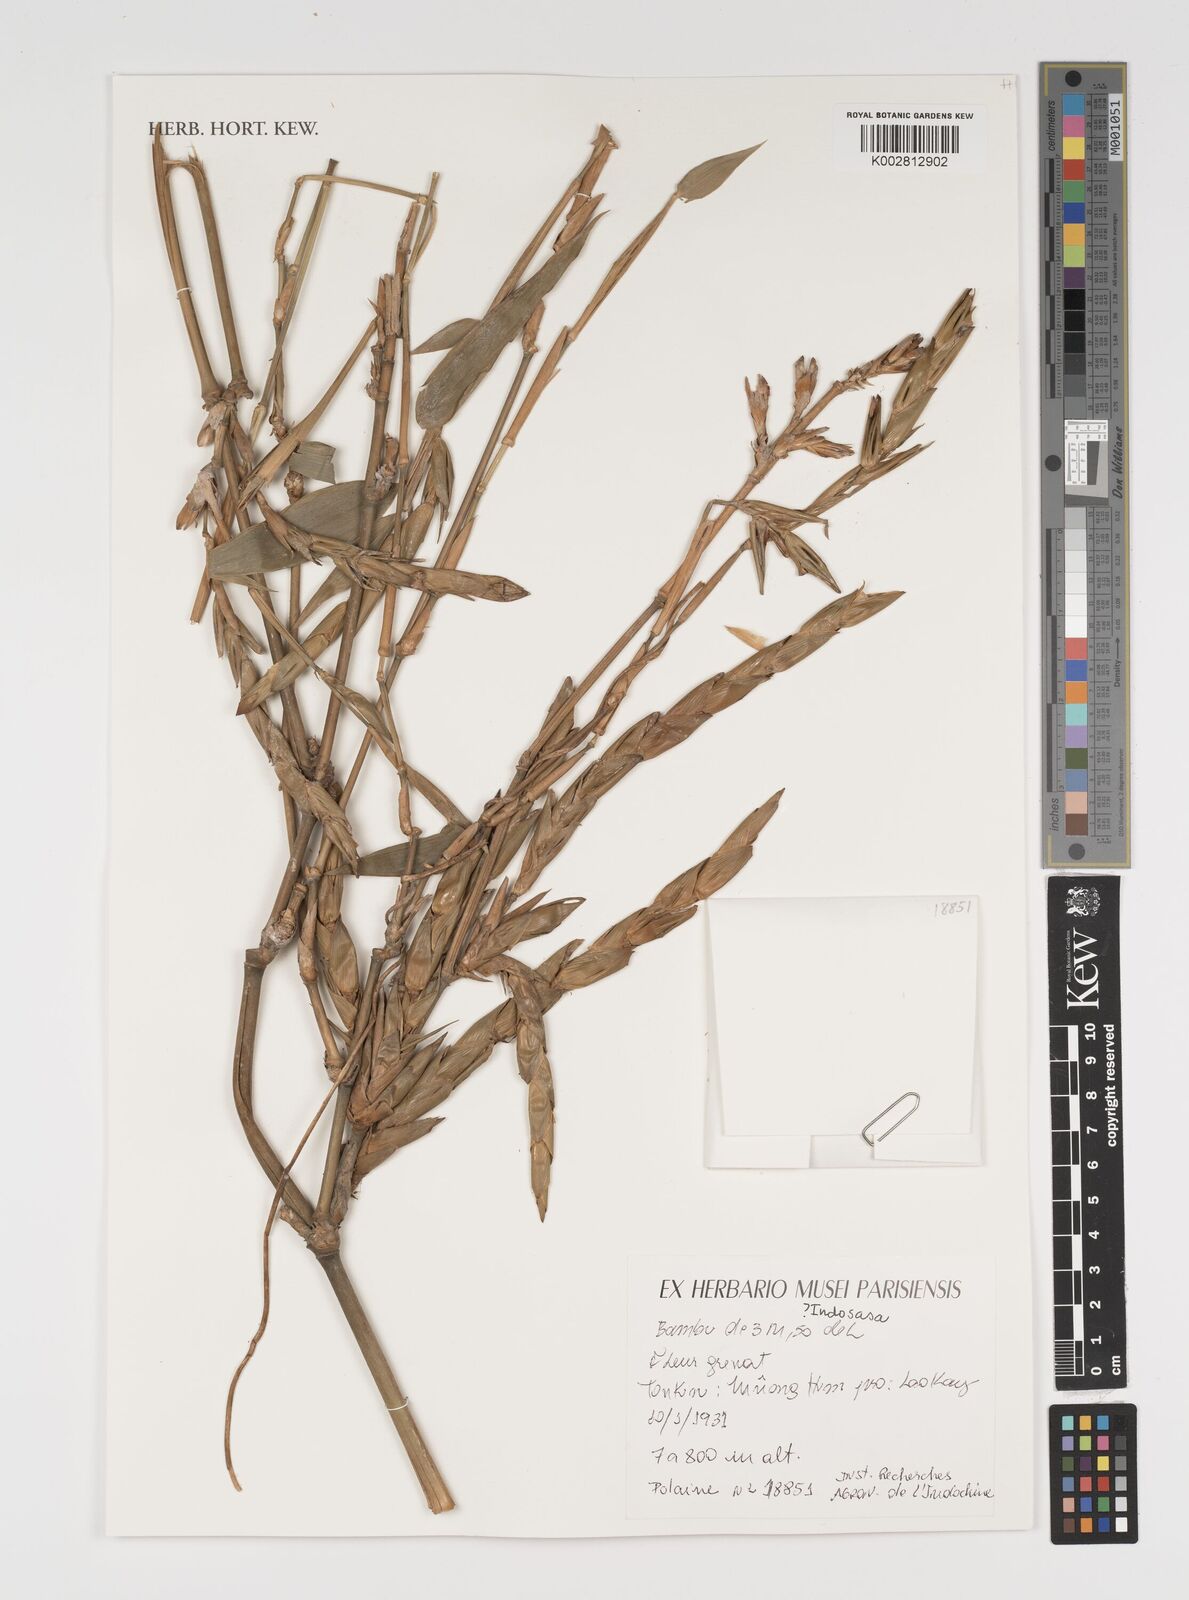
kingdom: Plantae
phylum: Tracheophyta
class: Liliopsida
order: Poales
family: Poaceae
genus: Indosasa
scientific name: Indosasa
